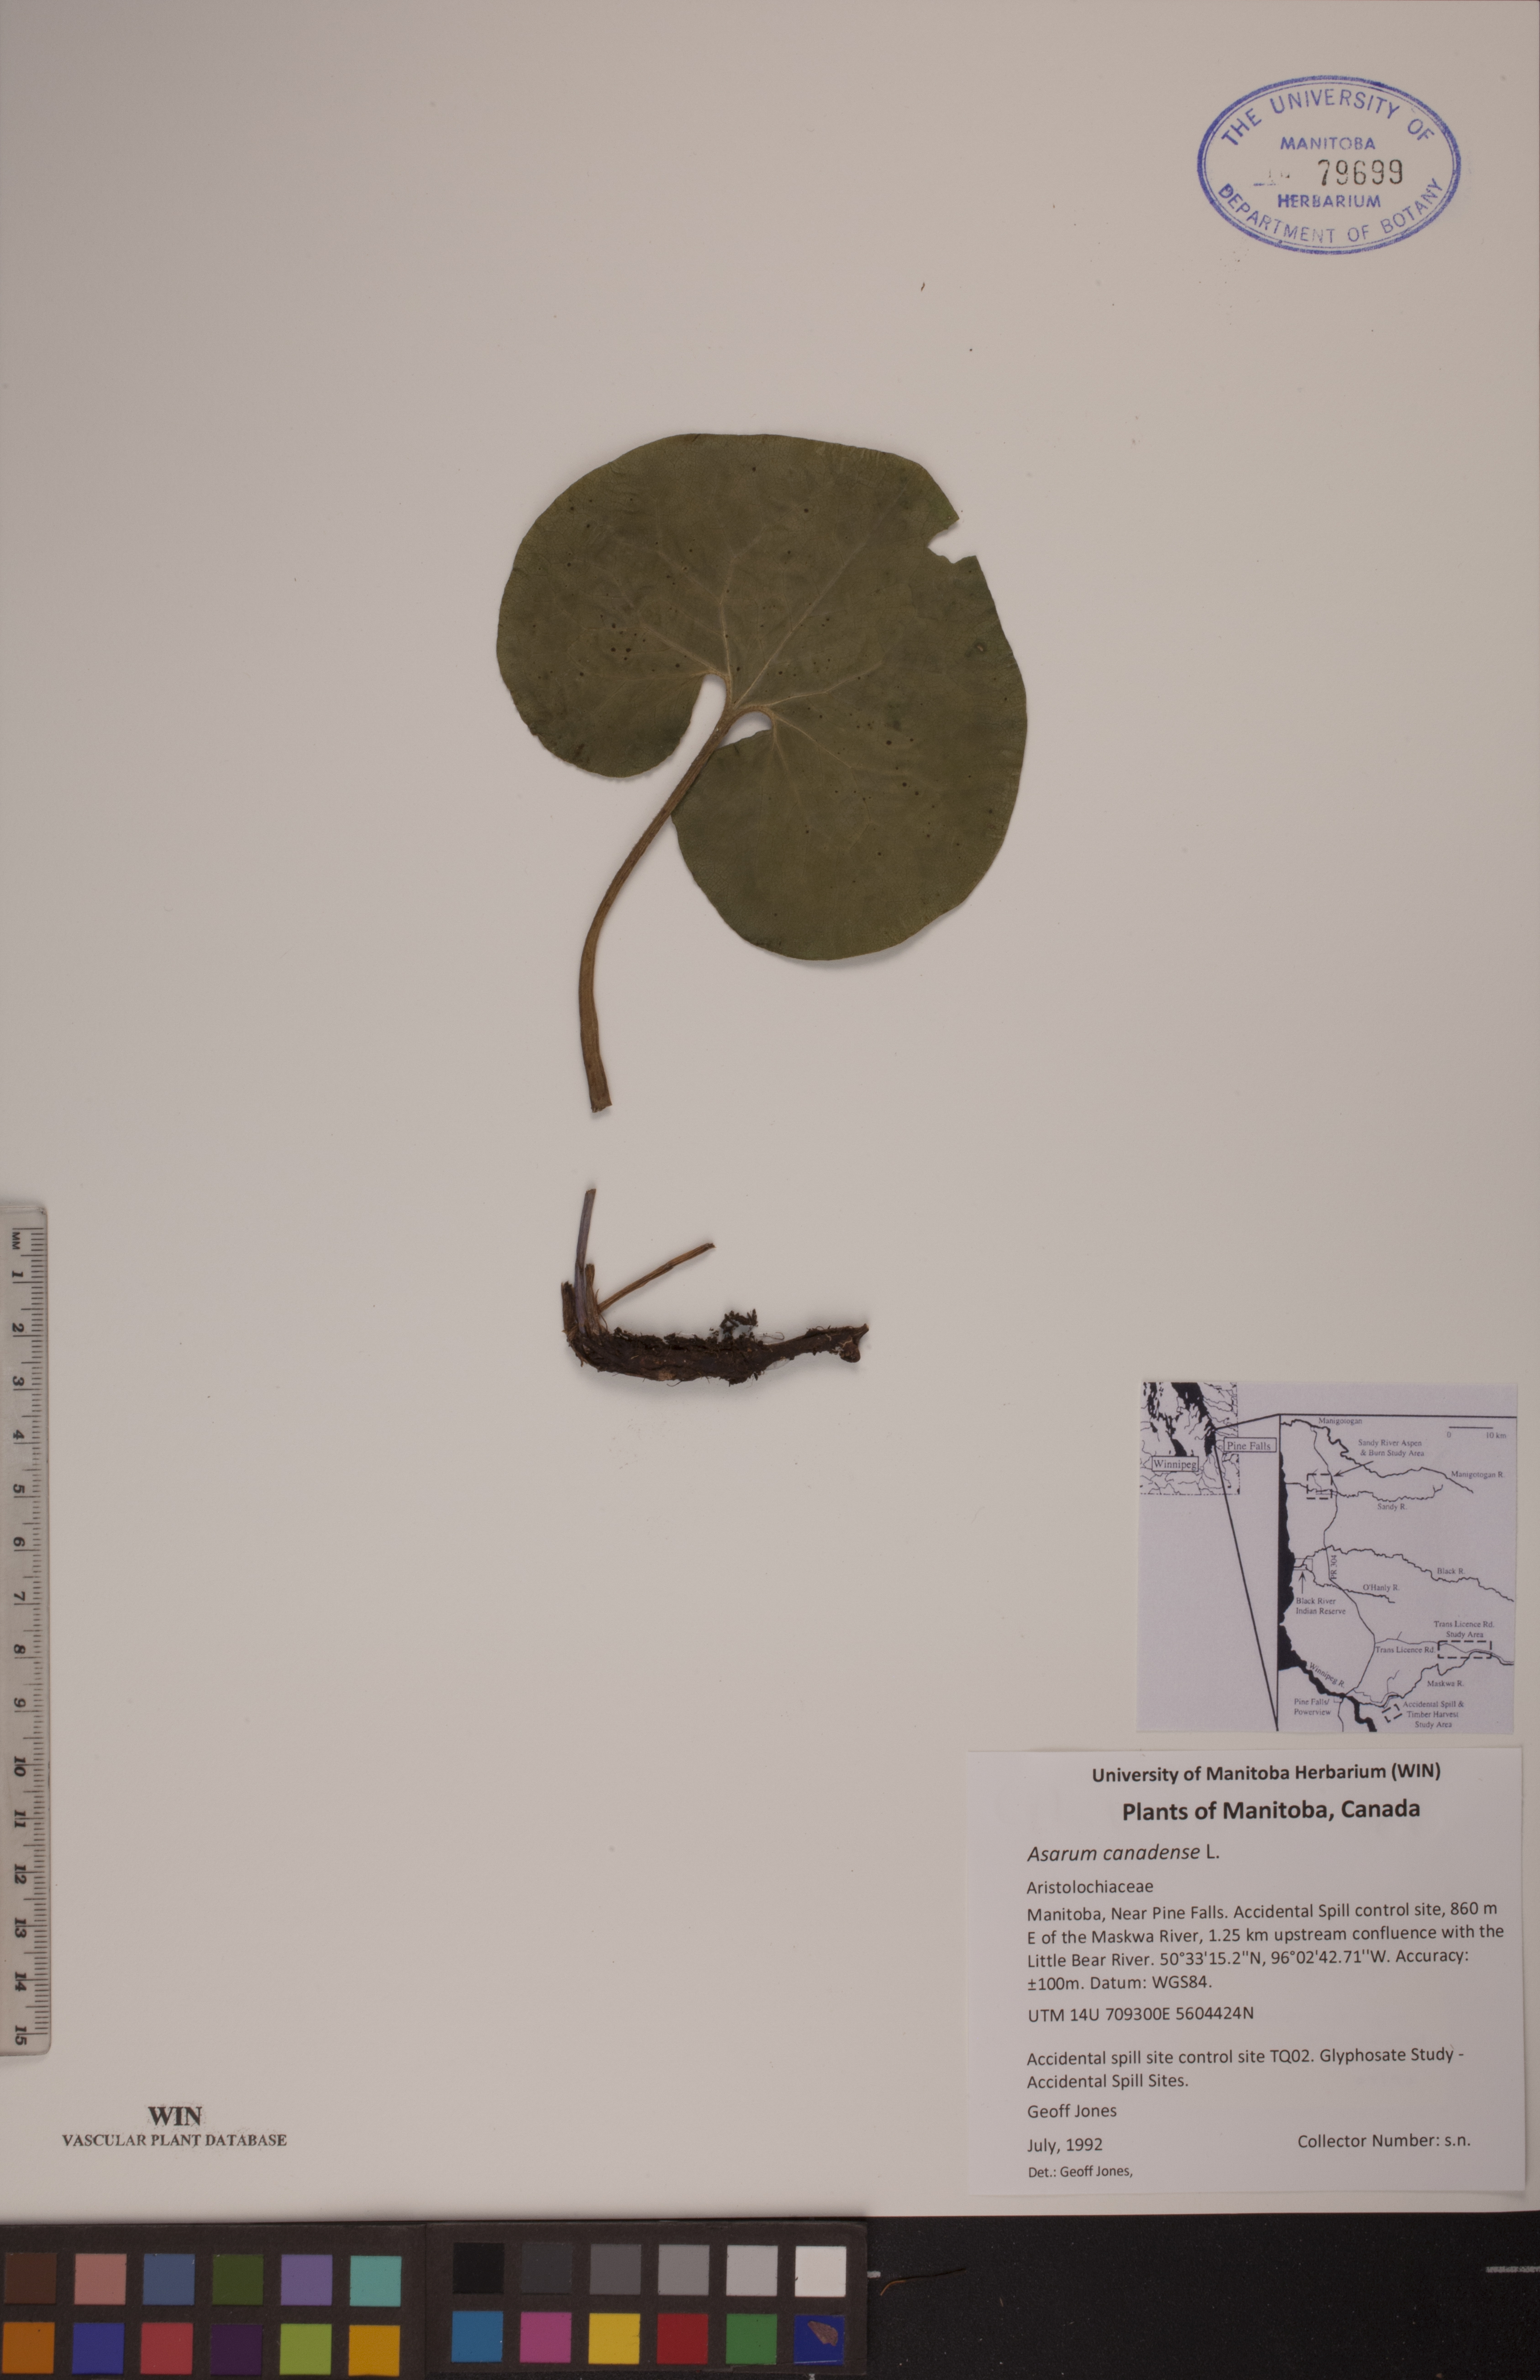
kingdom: Plantae
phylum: Tracheophyta
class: Magnoliopsida
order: Piperales
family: Aristolochiaceae
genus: Asarum
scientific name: Asarum canadense
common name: Wild ginger
